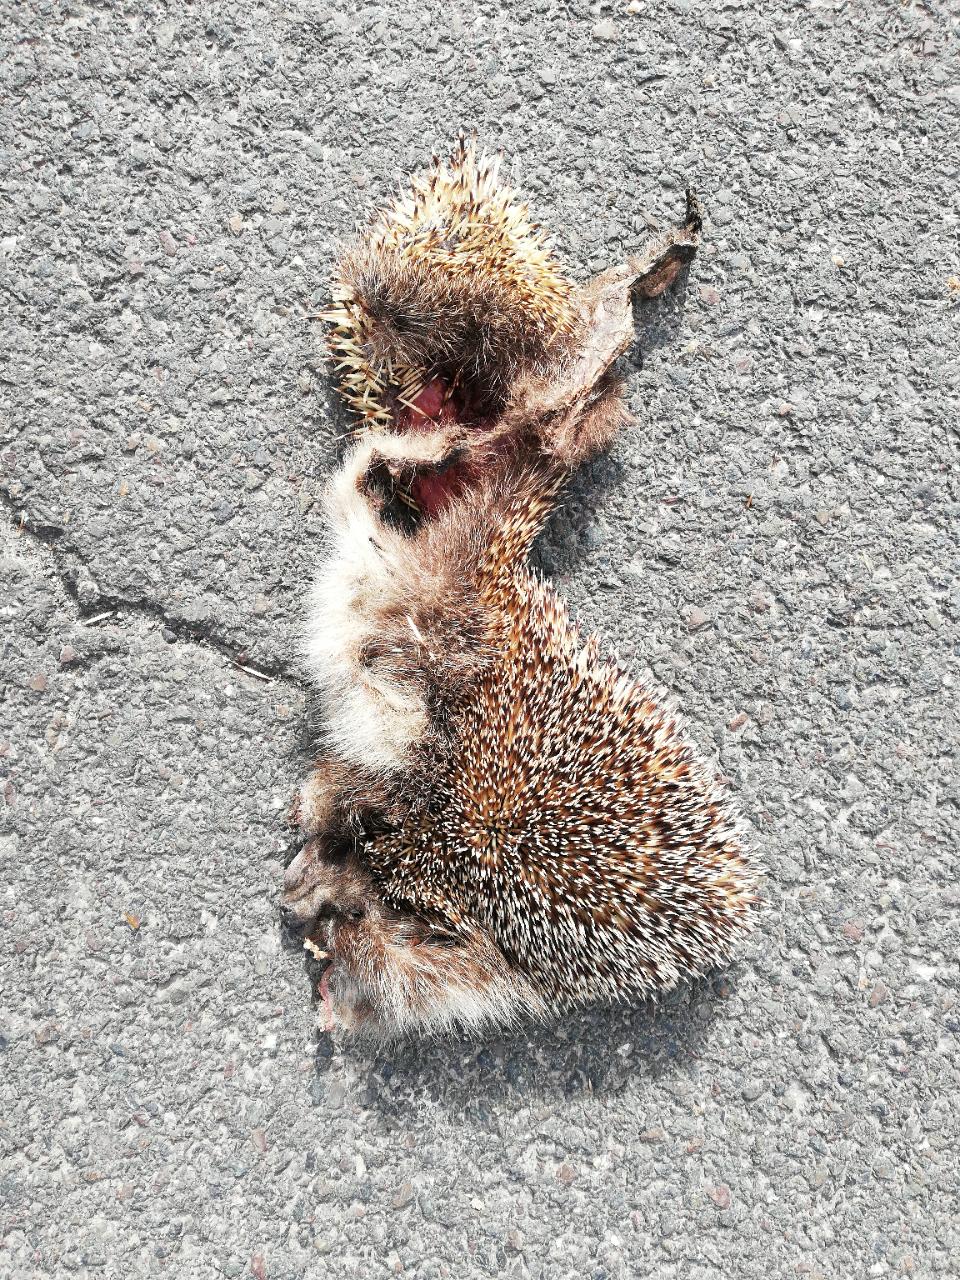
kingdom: Animalia
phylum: Chordata
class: Mammalia
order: Erinaceomorpha
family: Erinaceidae
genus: Erinaceus
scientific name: Erinaceus
